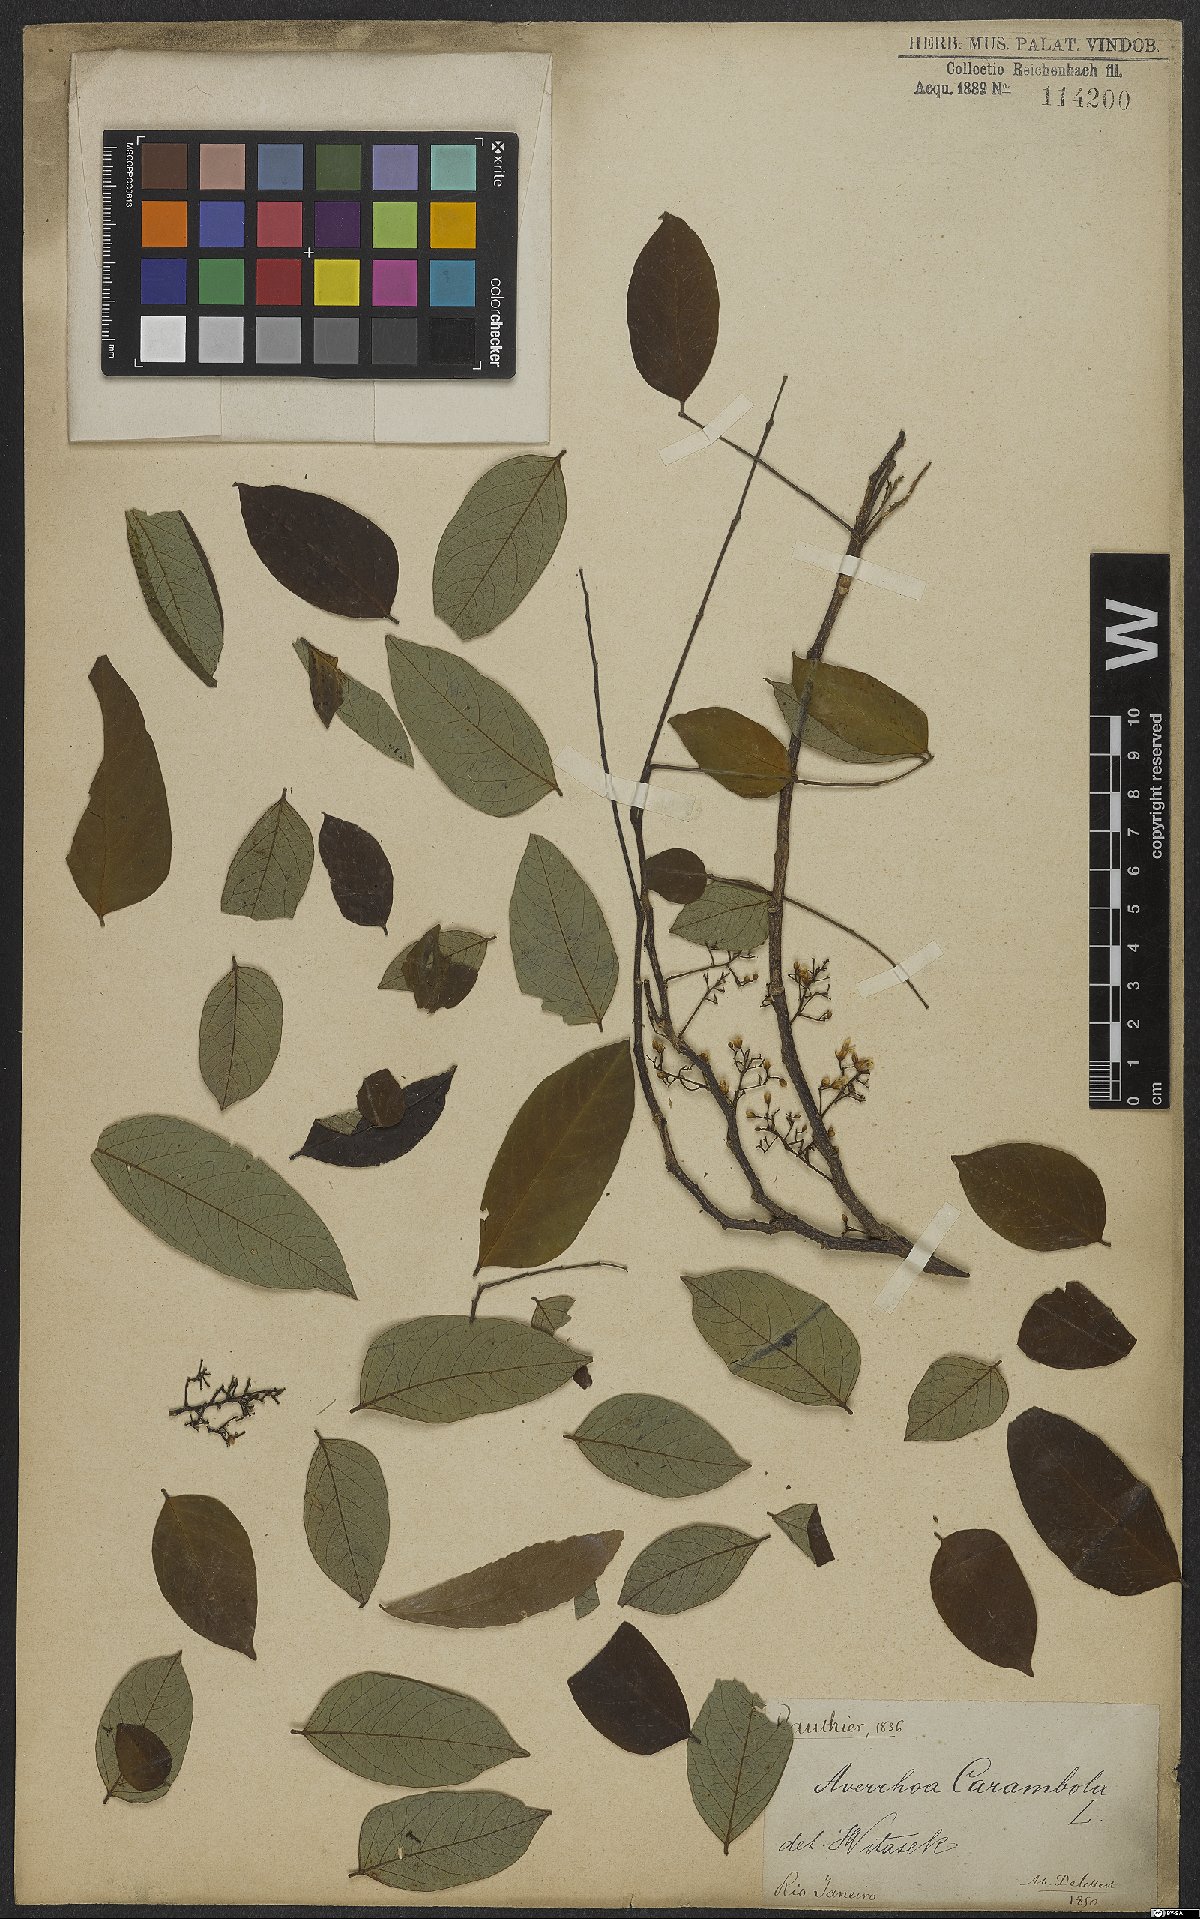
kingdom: Plantae
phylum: Tracheophyta
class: Magnoliopsida
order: Oxalidales
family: Oxalidaceae
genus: Averrhoa
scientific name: Averrhoa carambola
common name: Blimbing
